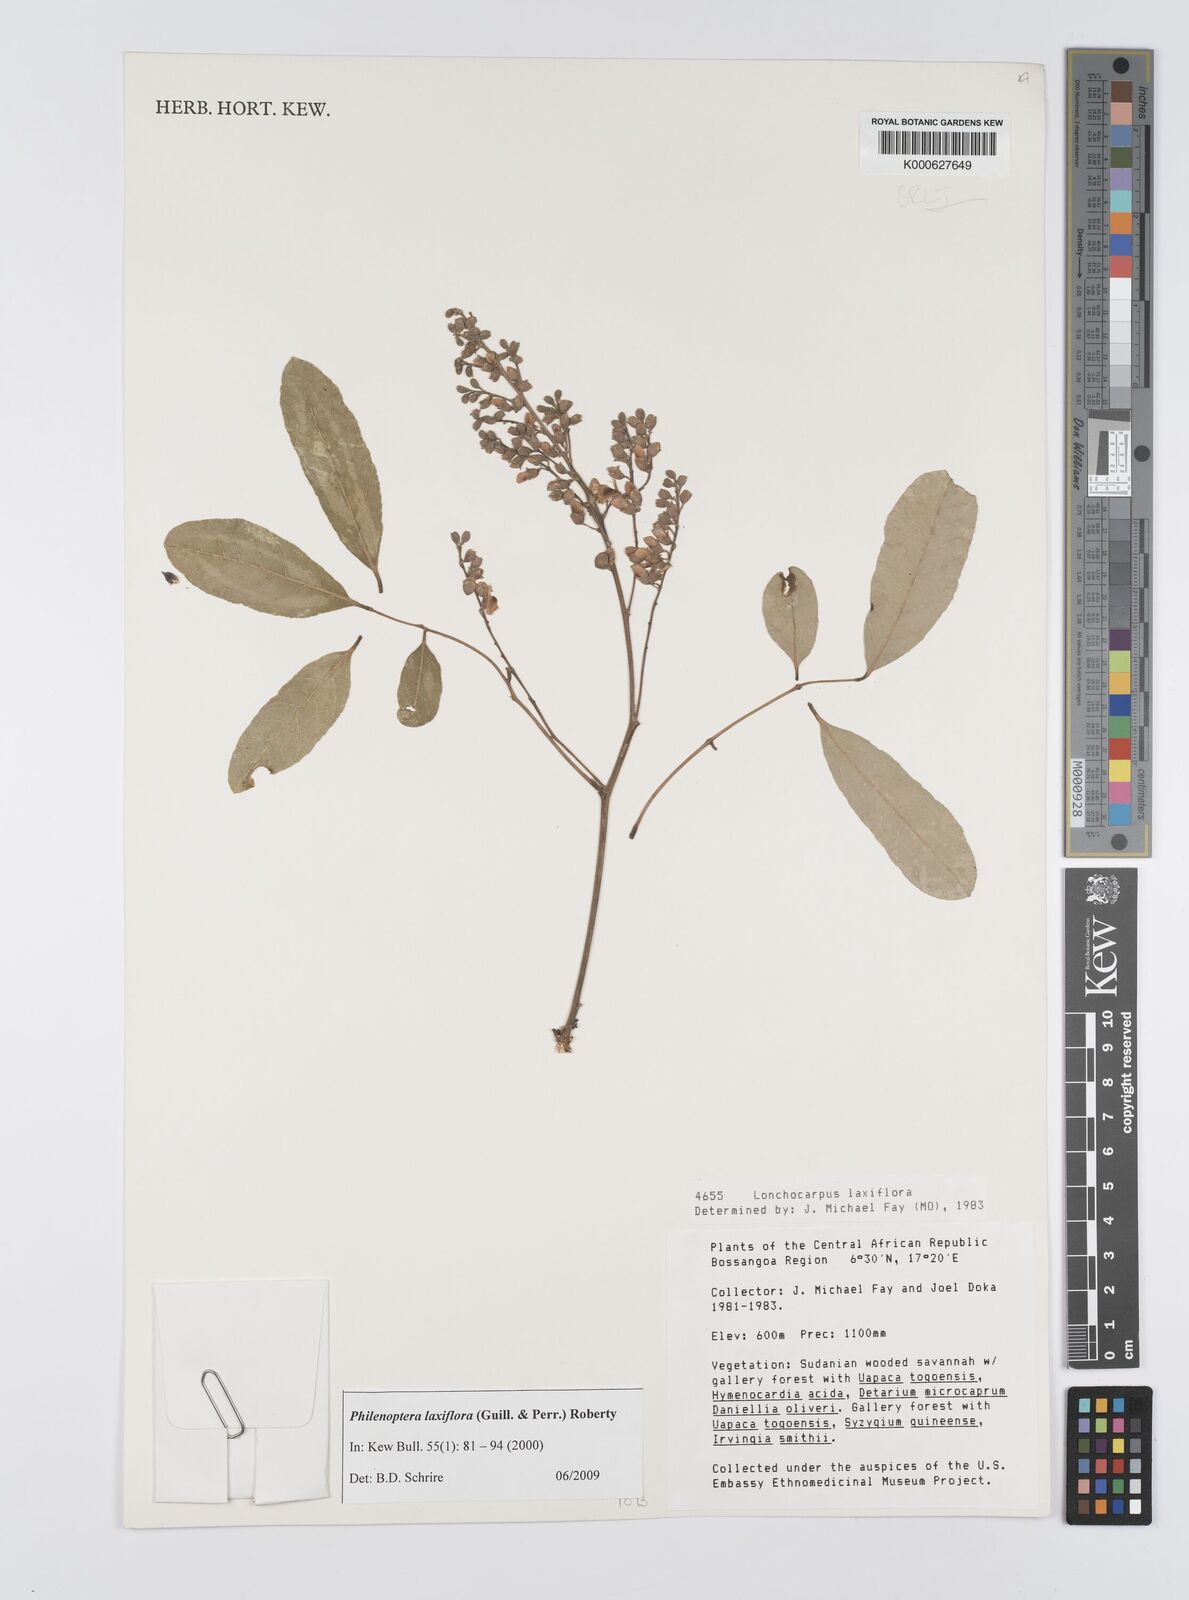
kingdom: Plantae
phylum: Tracheophyta
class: Magnoliopsida
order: Fabales
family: Fabaceae
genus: Philenoptera
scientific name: Philenoptera laxiflora
